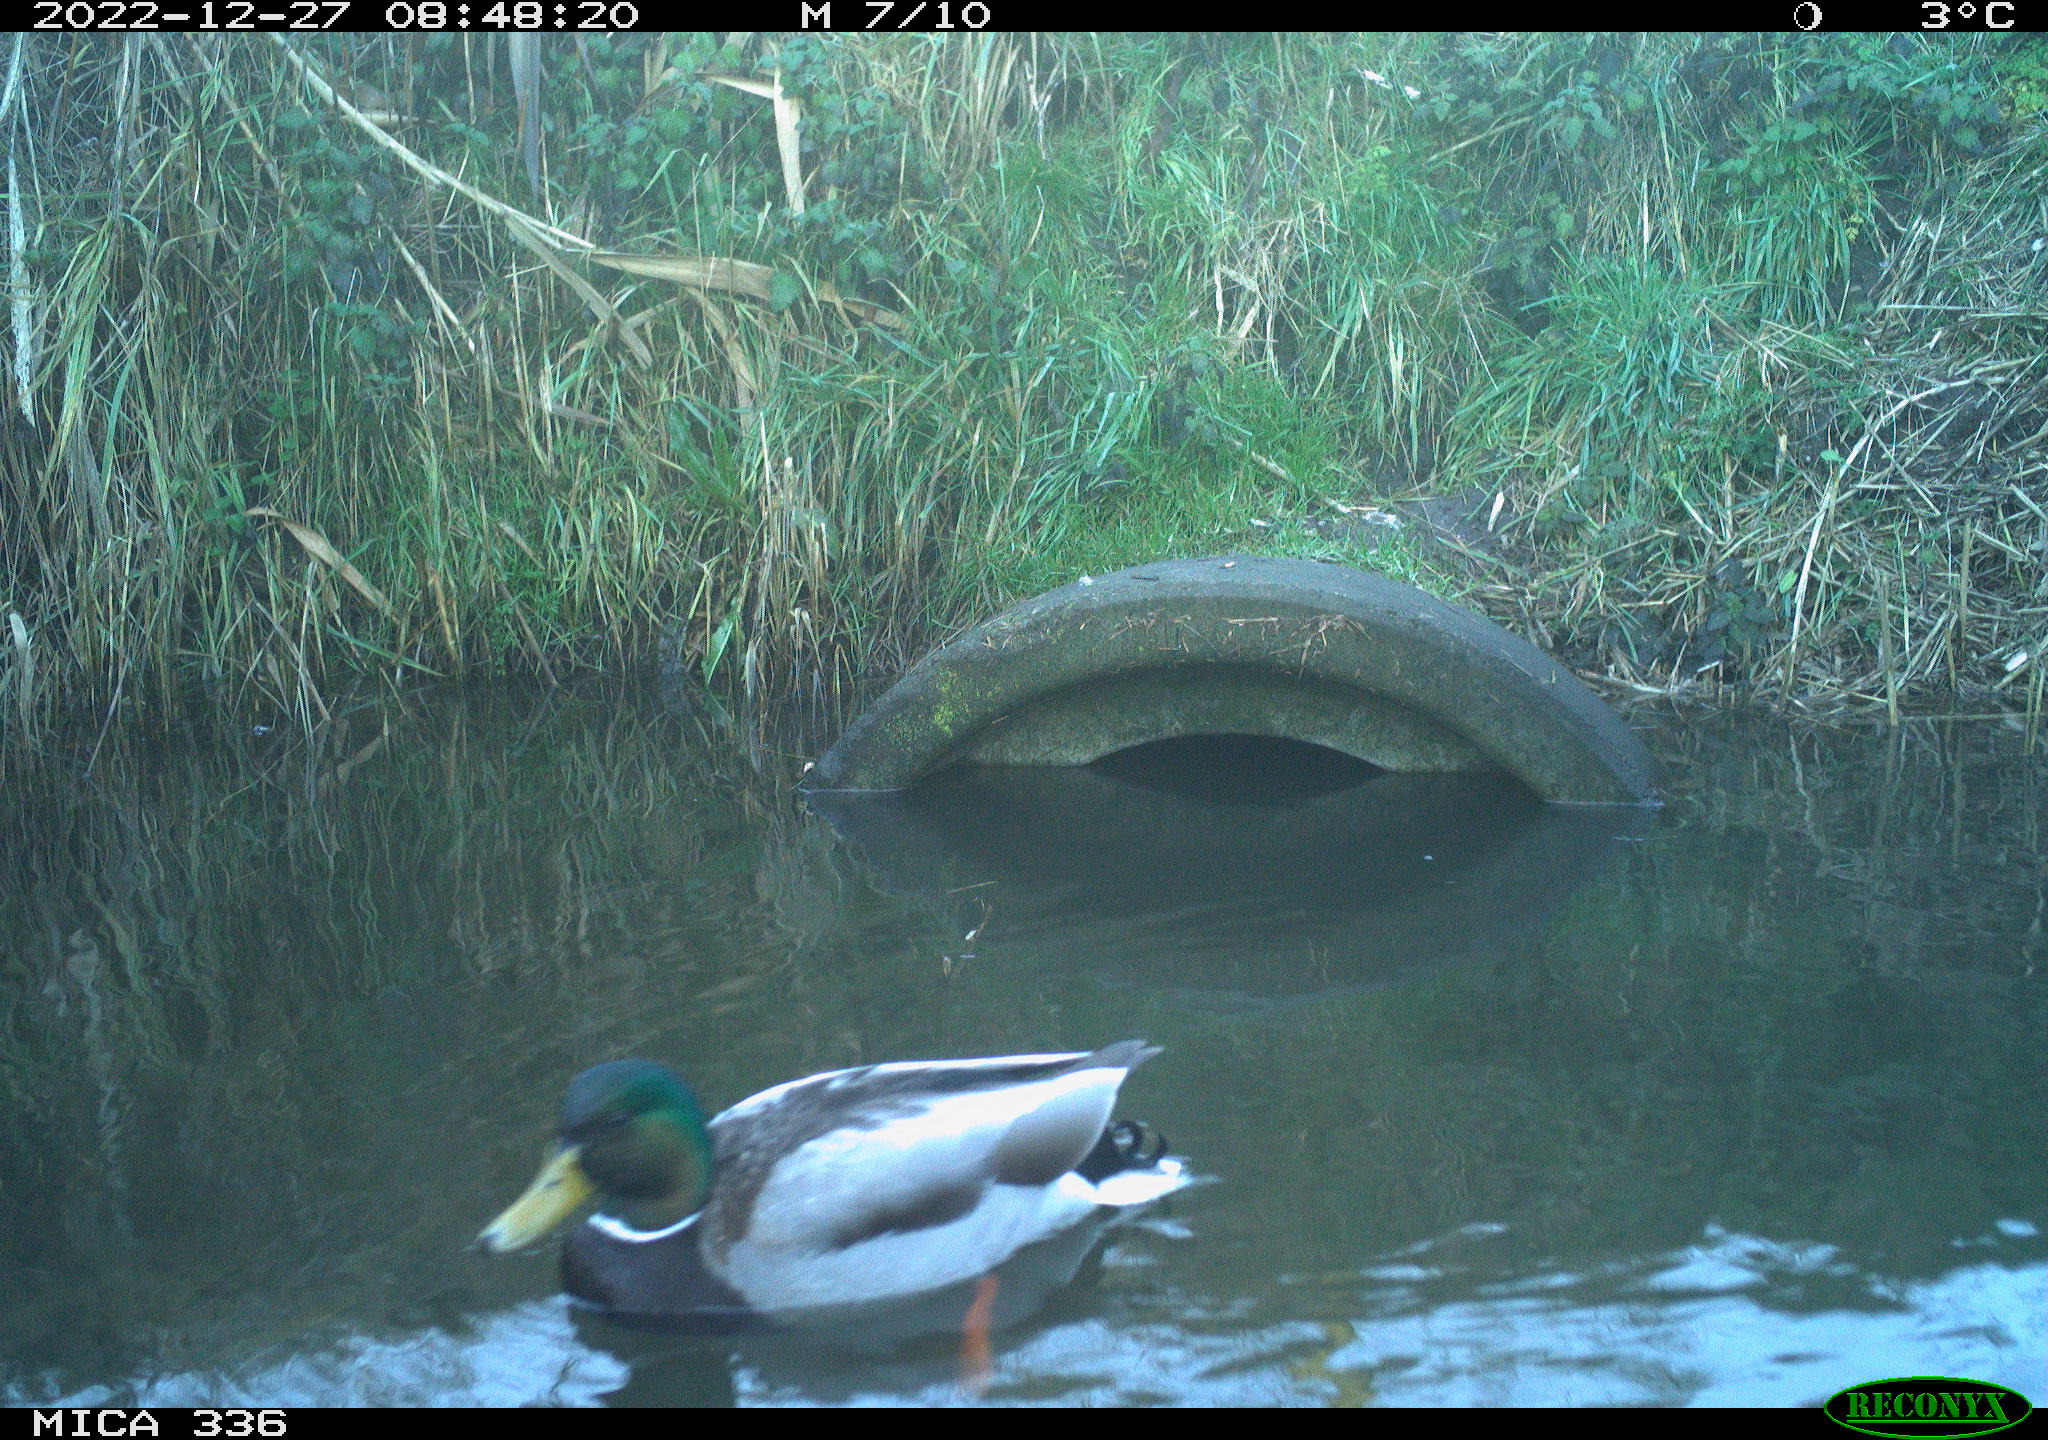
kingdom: Animalia
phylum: Chordata
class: Aves
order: Anseriformes
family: Anatidae
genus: Anas
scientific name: Anas
